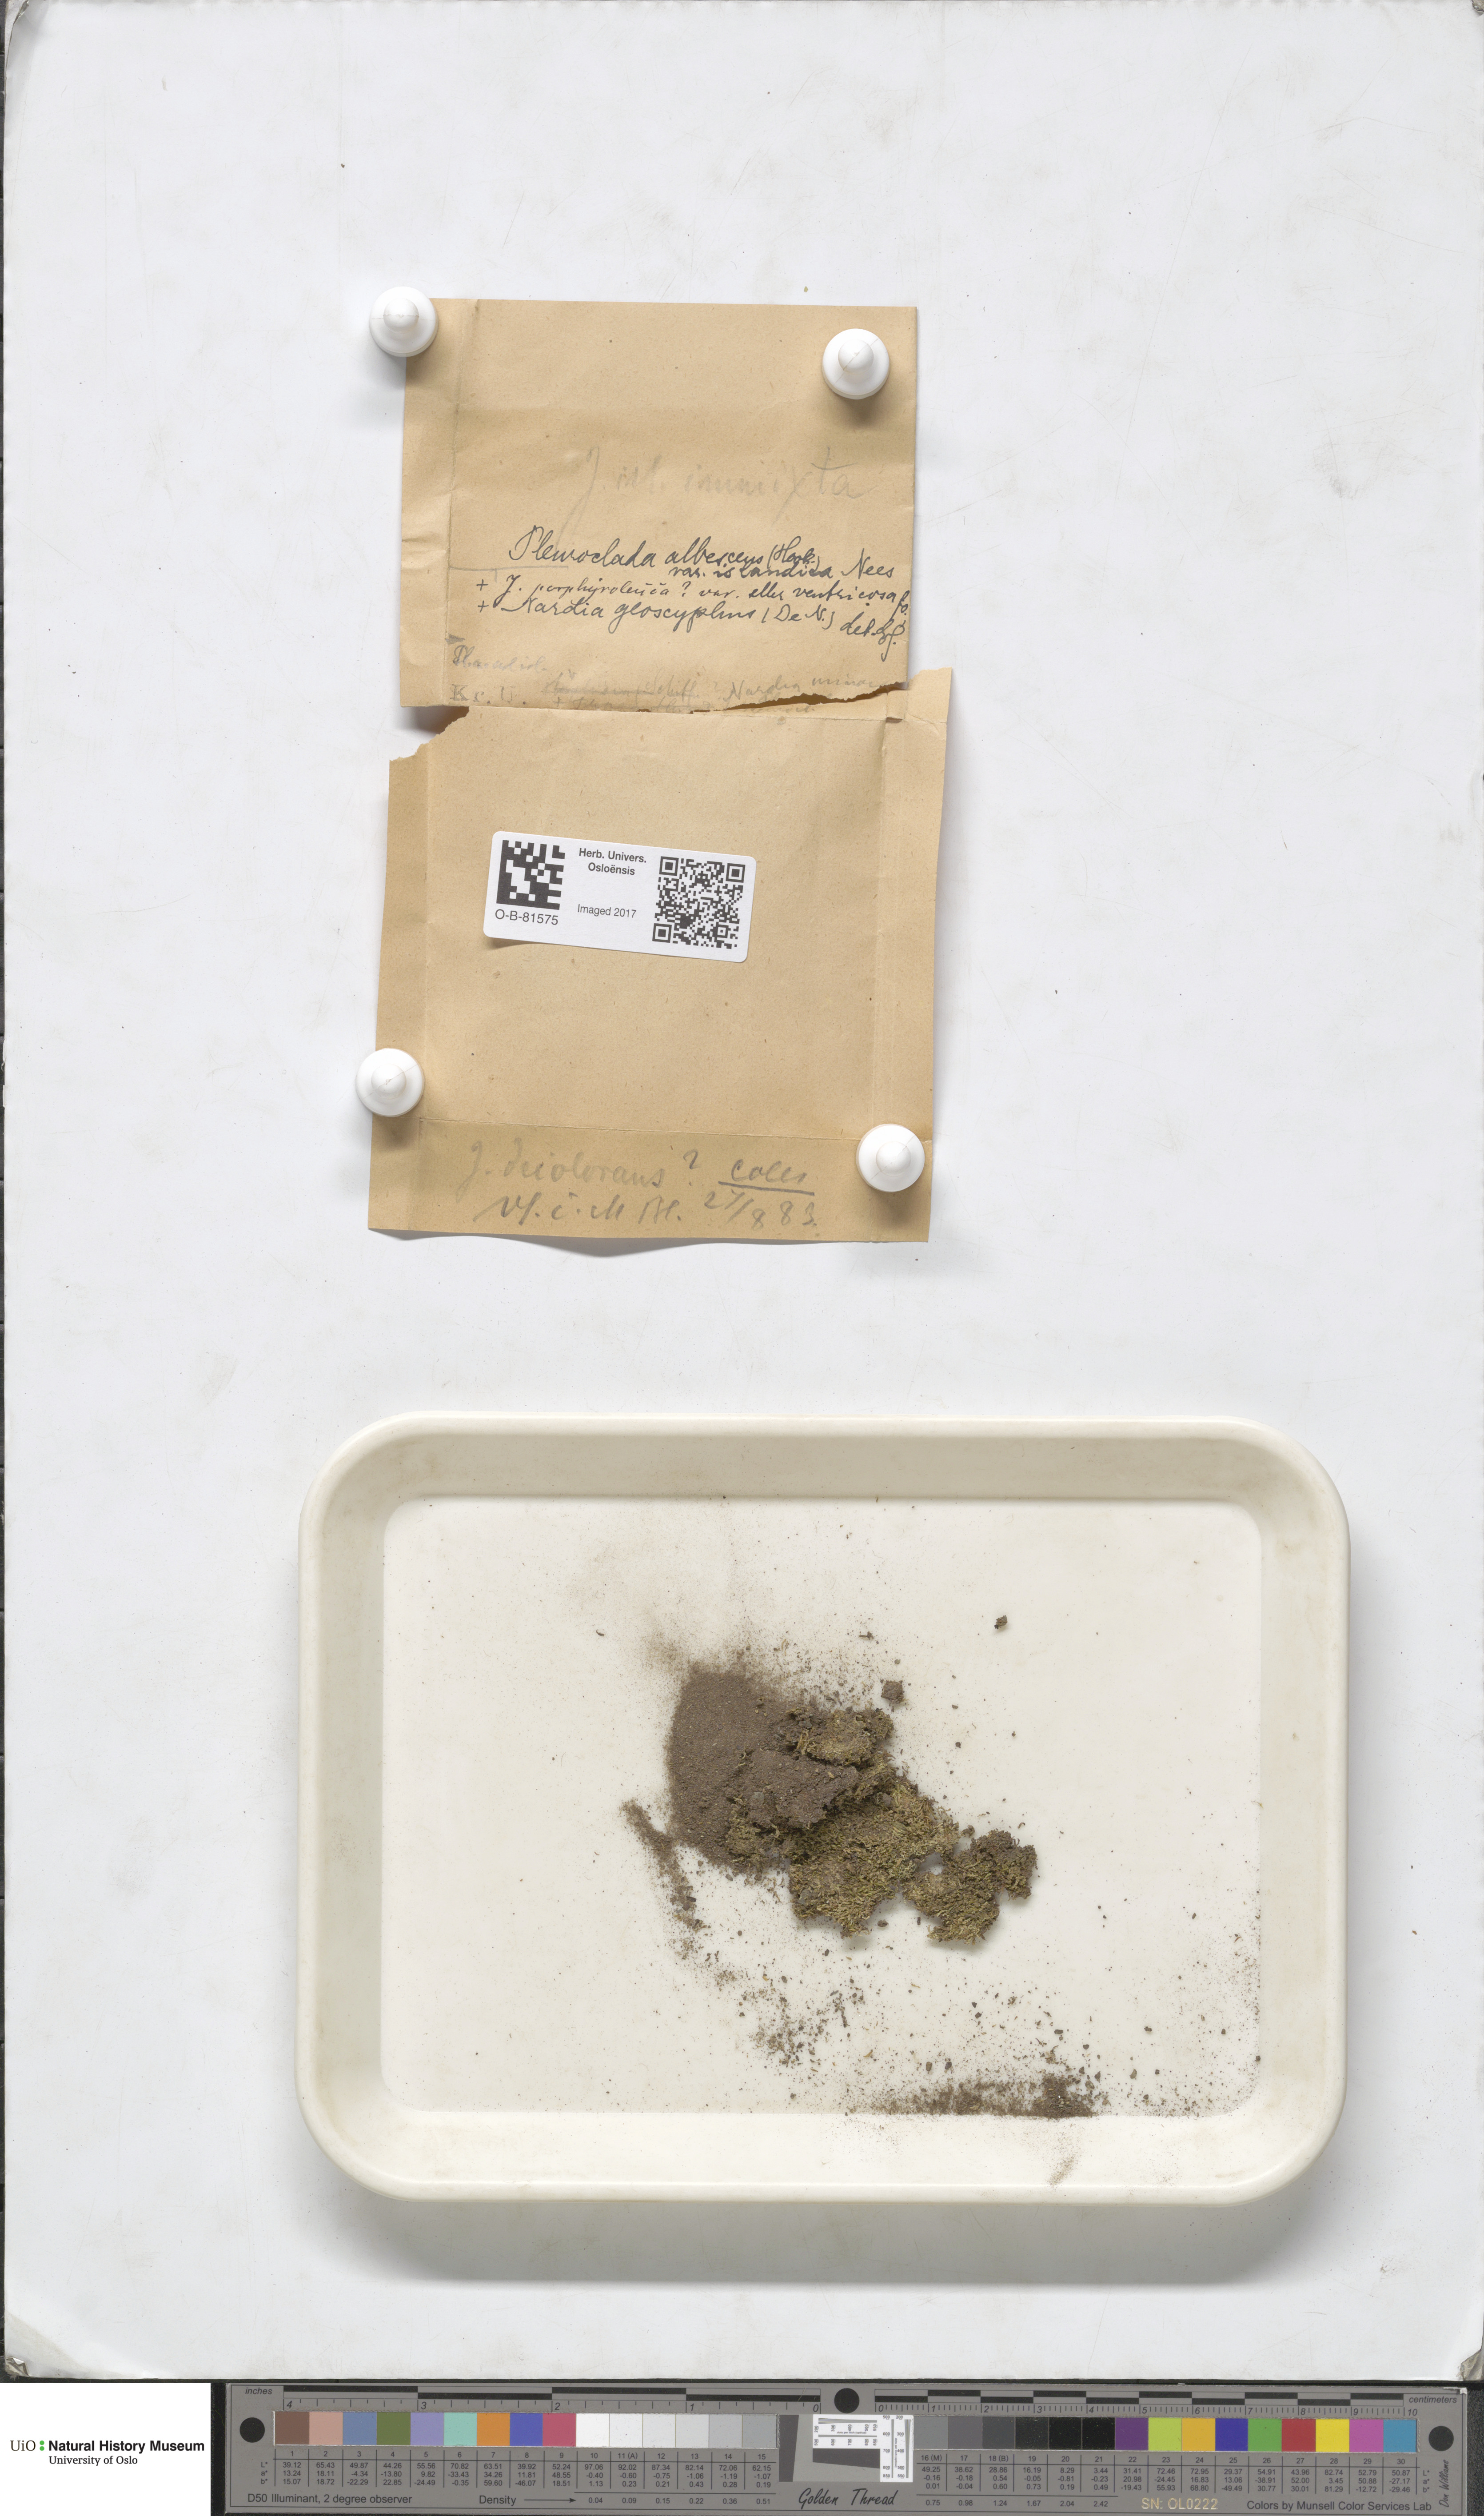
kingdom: Plantae
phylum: Marchantiophyta
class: Jungermanniopsida
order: Jungermanniales
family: Cephaloziaceae
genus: Fuscocephaloziopsis
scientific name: Fuscocephaloziopsis albescens
